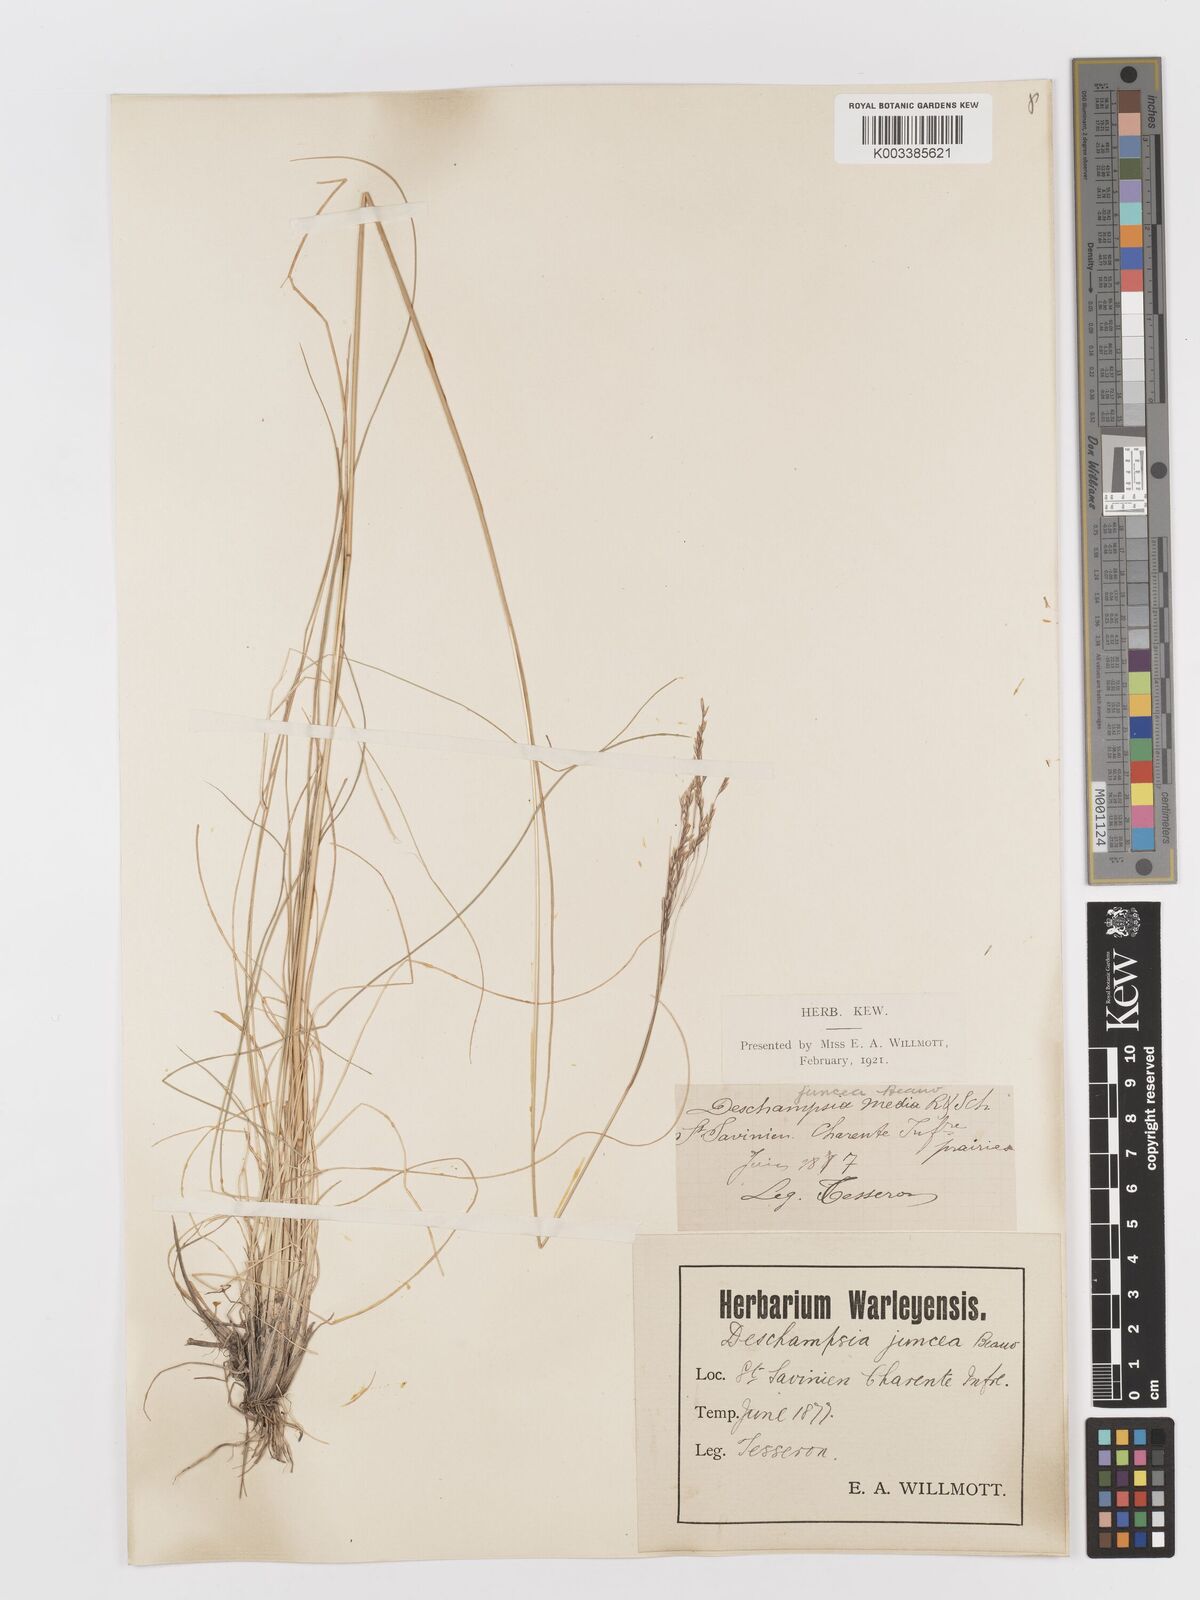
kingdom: Plantae
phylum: Tracheophyta
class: Liliopsida
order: Poales
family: Poaceae
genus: Deschampsia
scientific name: Deschampsia media
